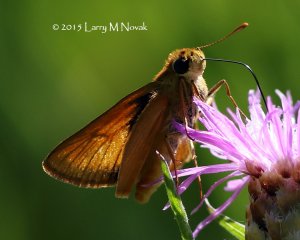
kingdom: Animalia
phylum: Arthropoda
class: Insecta
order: Lepidoptera
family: Hesperiidae
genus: Atrytone
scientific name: Atrytone delaware
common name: Delaware Skipper
